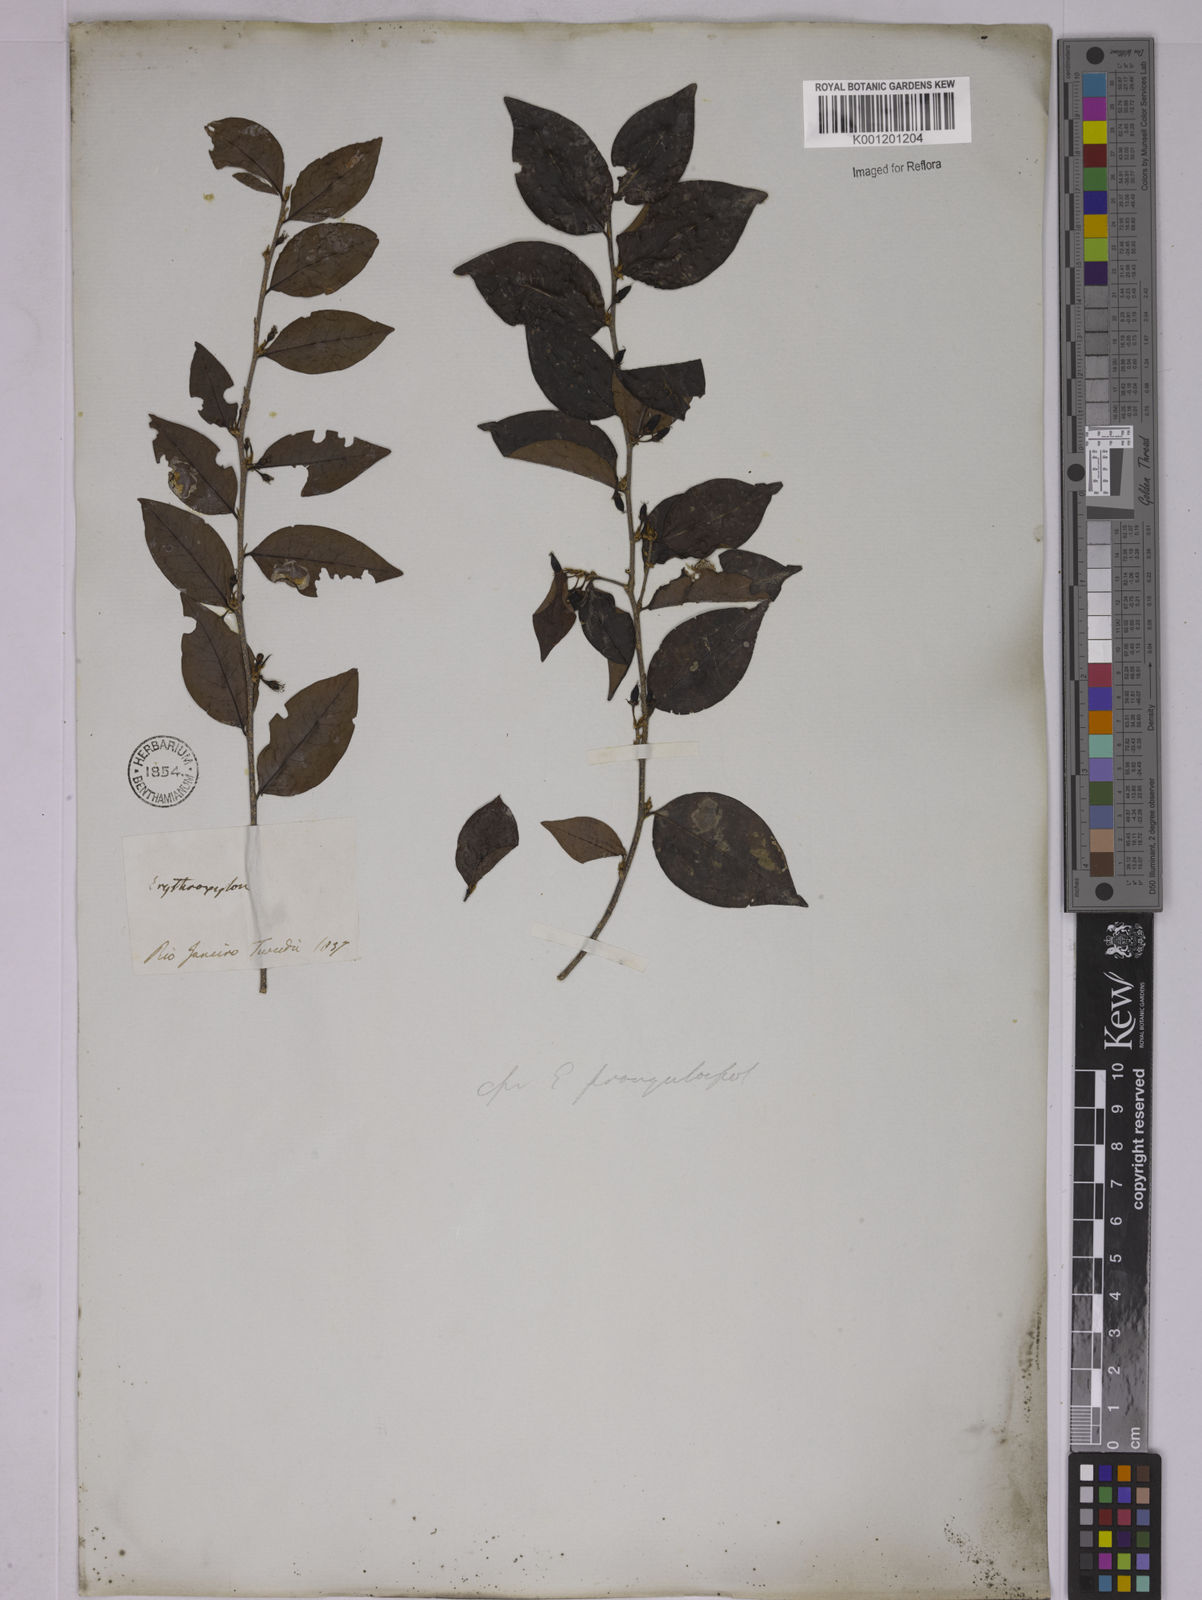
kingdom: Plantae
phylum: Tracheophyta
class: Magnoliopsida
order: Malpighiales
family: Erythroxylaceae
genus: Erythroxylum
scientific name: Erythroxylum frangulifolium
